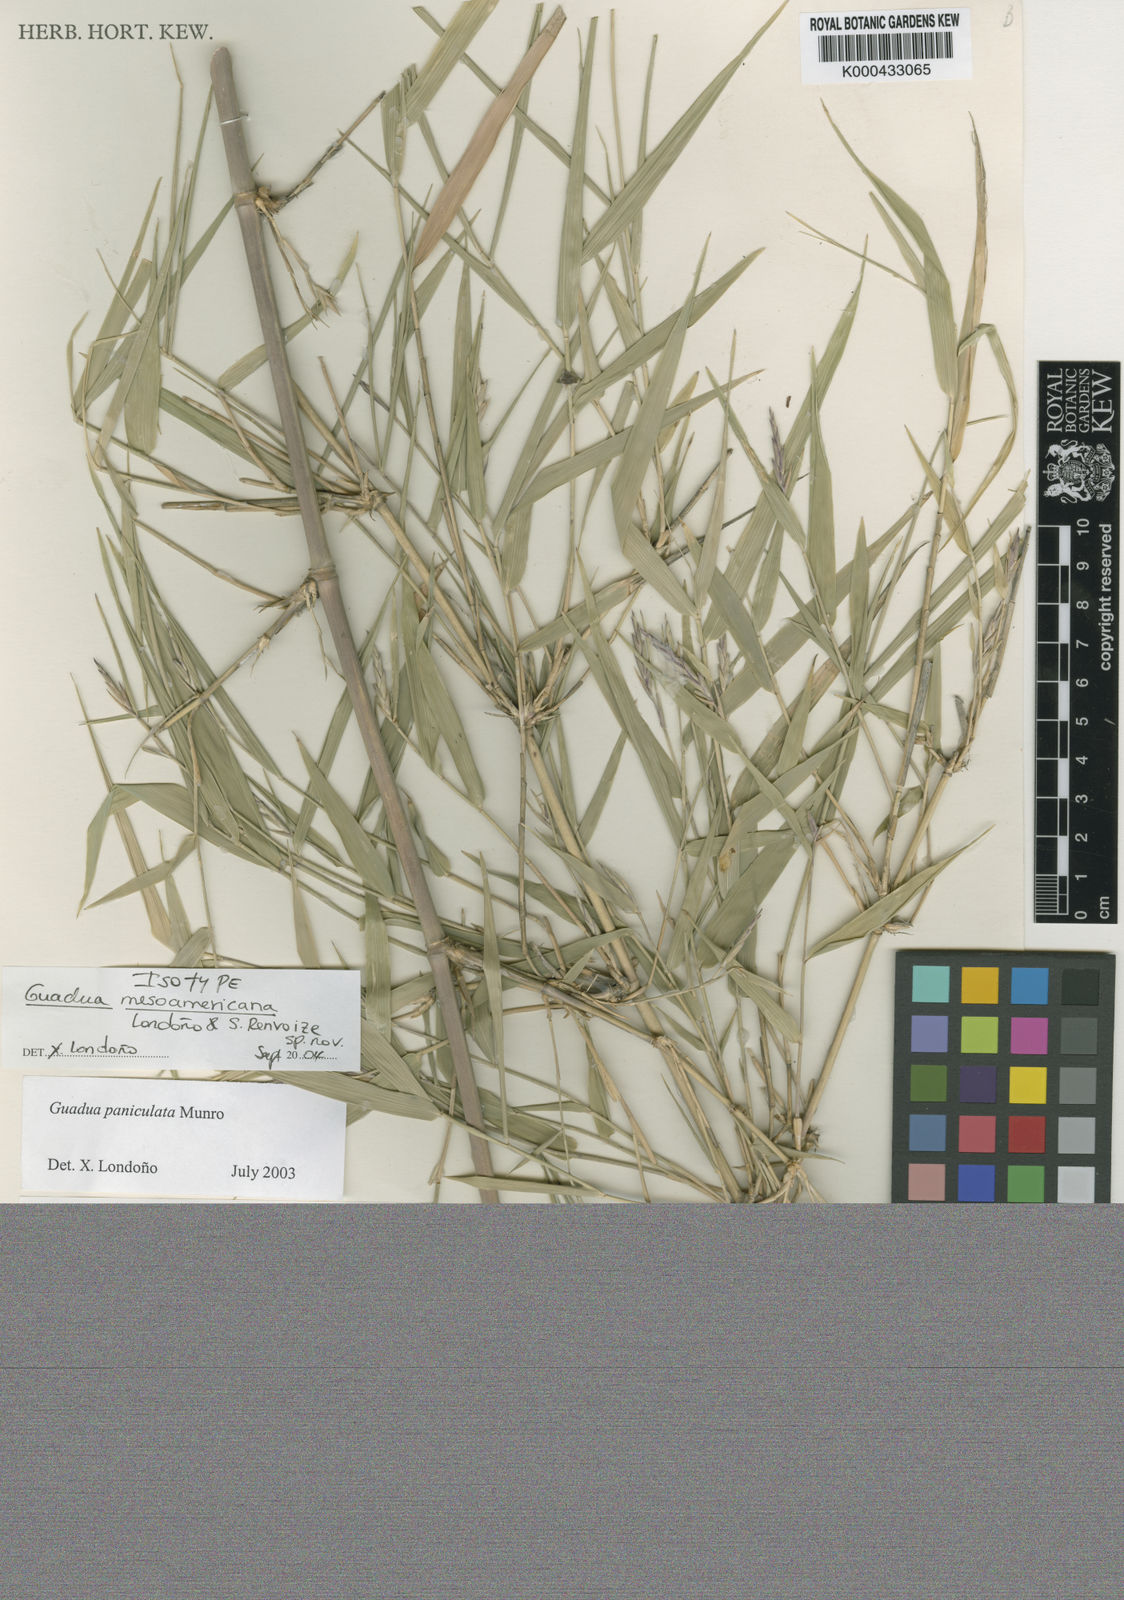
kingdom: Plantae
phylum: Tracheophyta
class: Liliopsida
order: Poales
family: Poaceae
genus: Guadua
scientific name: Guadua
